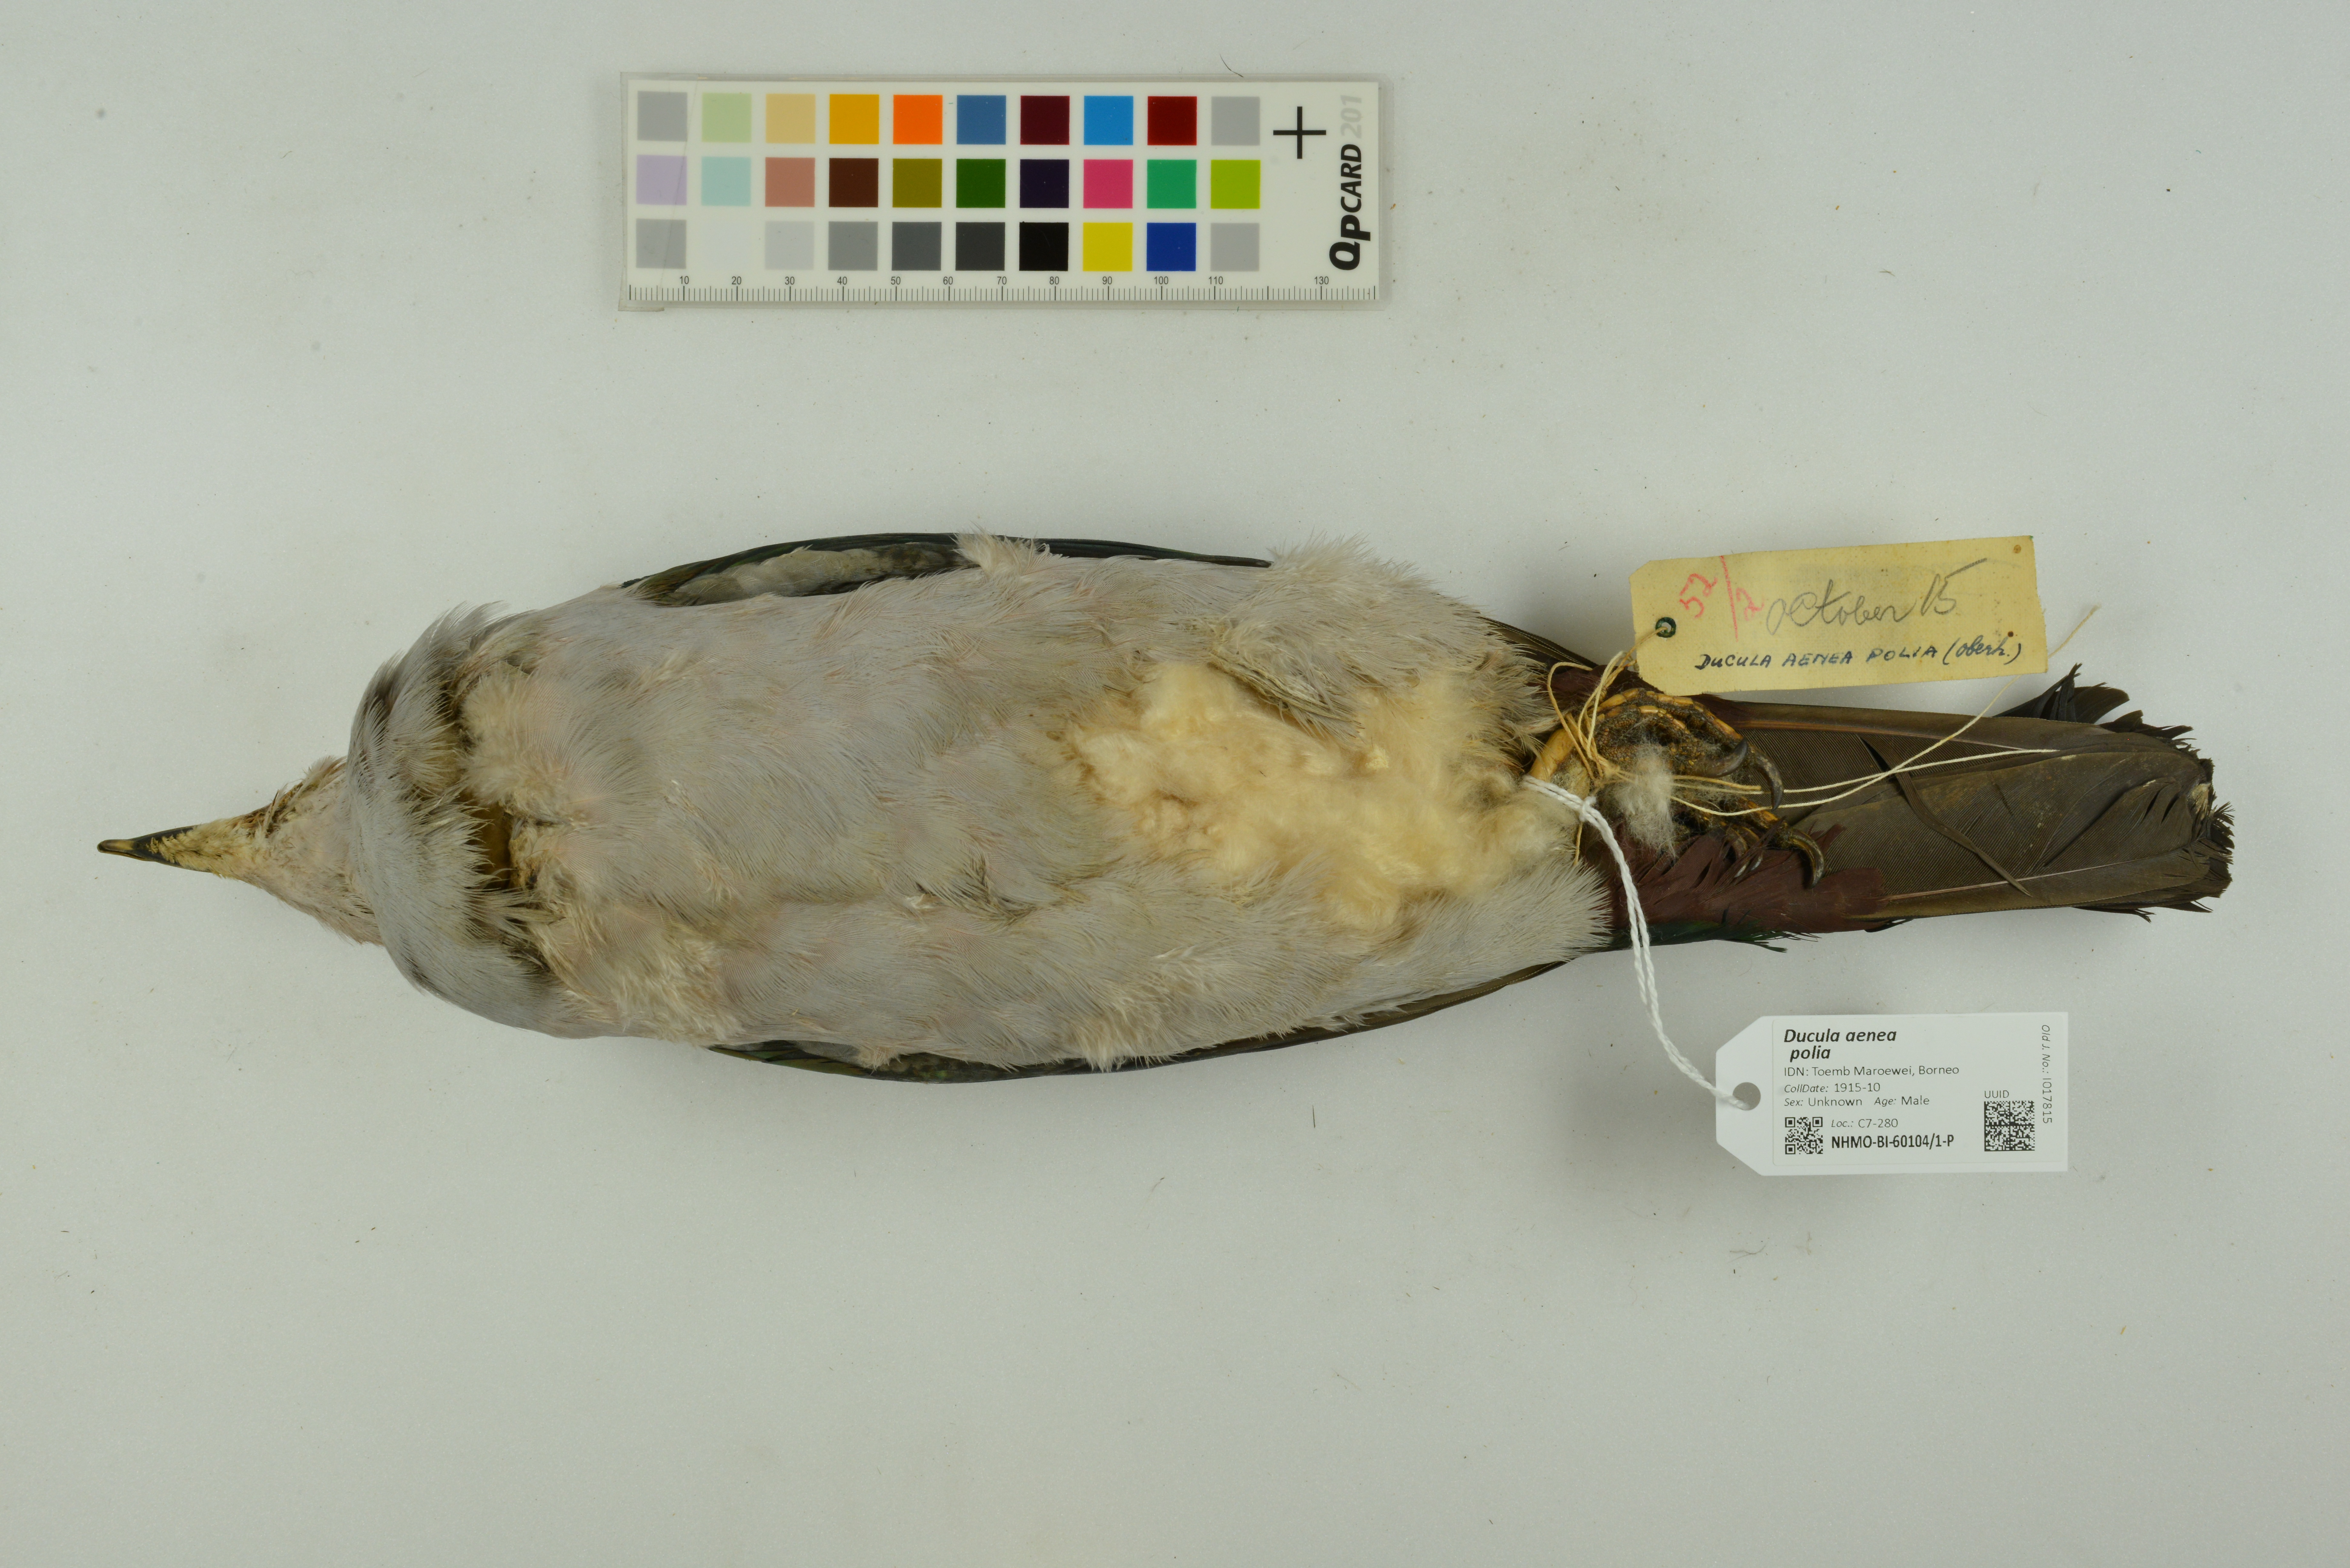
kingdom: Animalia
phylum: Chordata
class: Aves
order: Columbiformes
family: Columbidae
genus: Ducula
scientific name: Ducula aenea
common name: Green imperial pigeon
